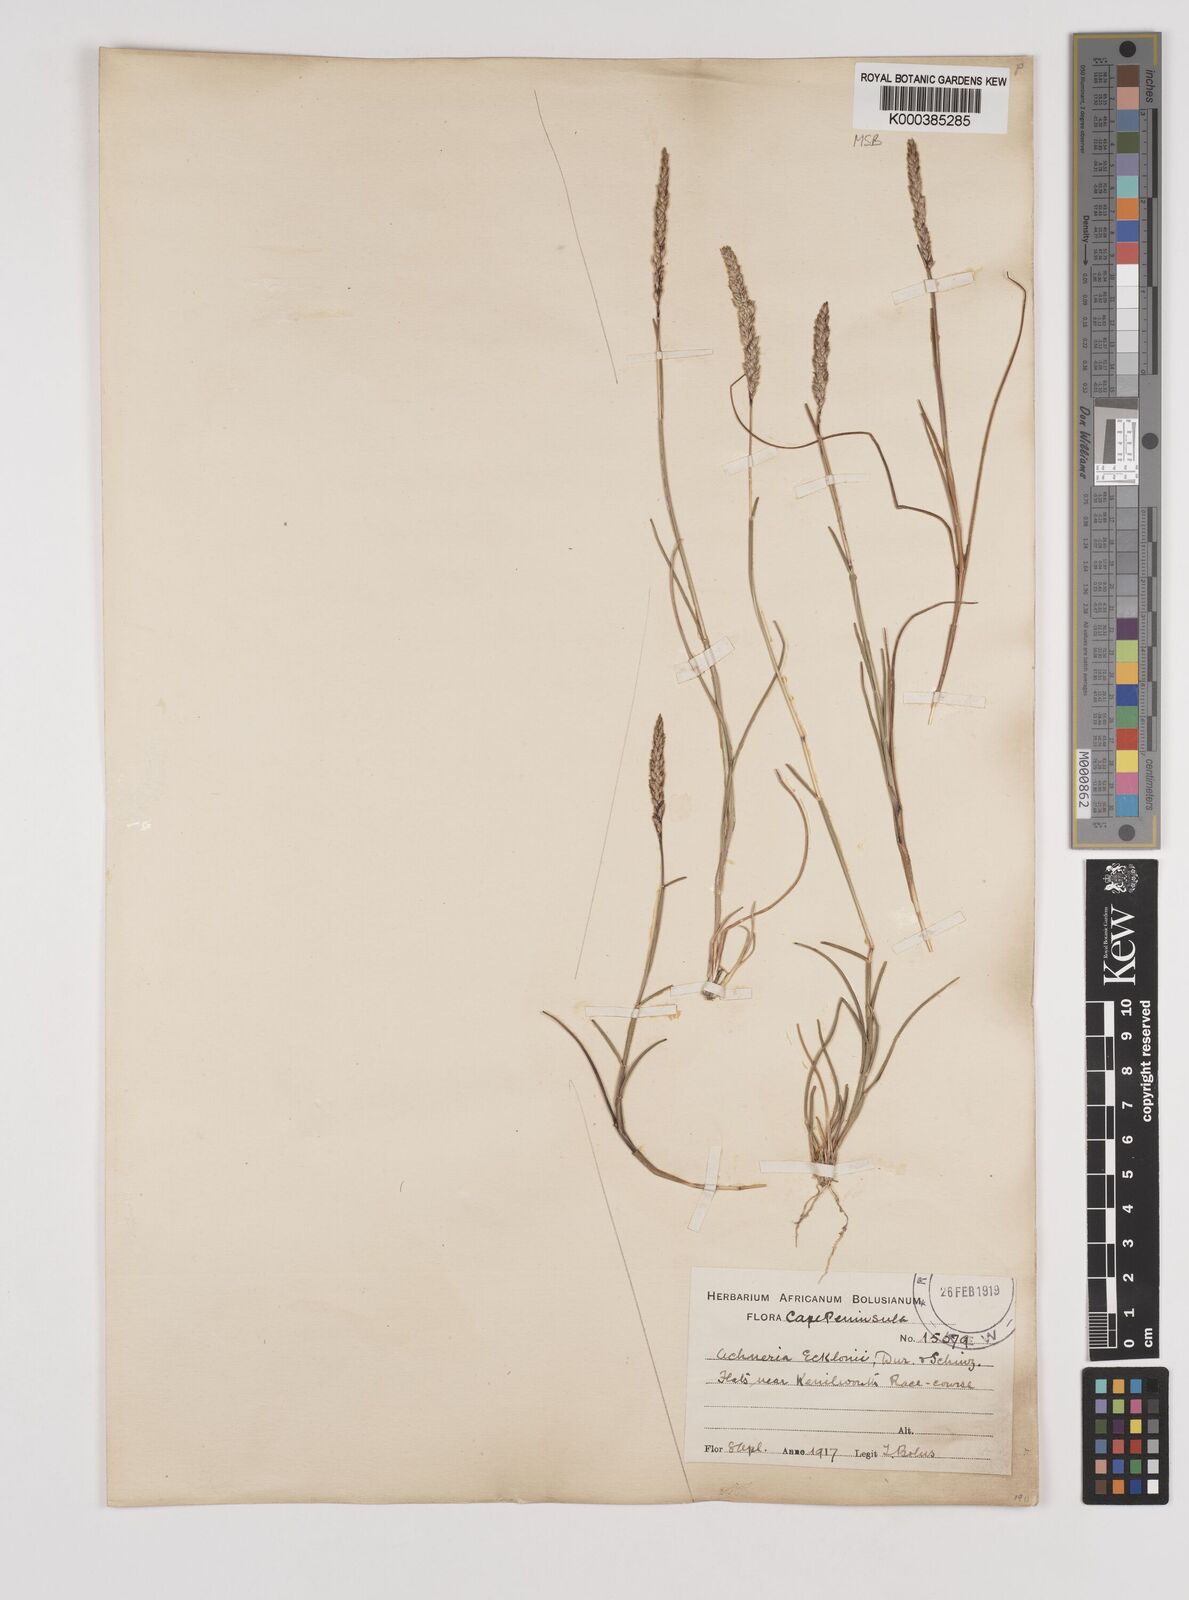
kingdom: Plantae
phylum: Tracheophyta
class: Liliopsida
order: Poales
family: Poaceae
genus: Pentameris
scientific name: Pentameris ecklonii
